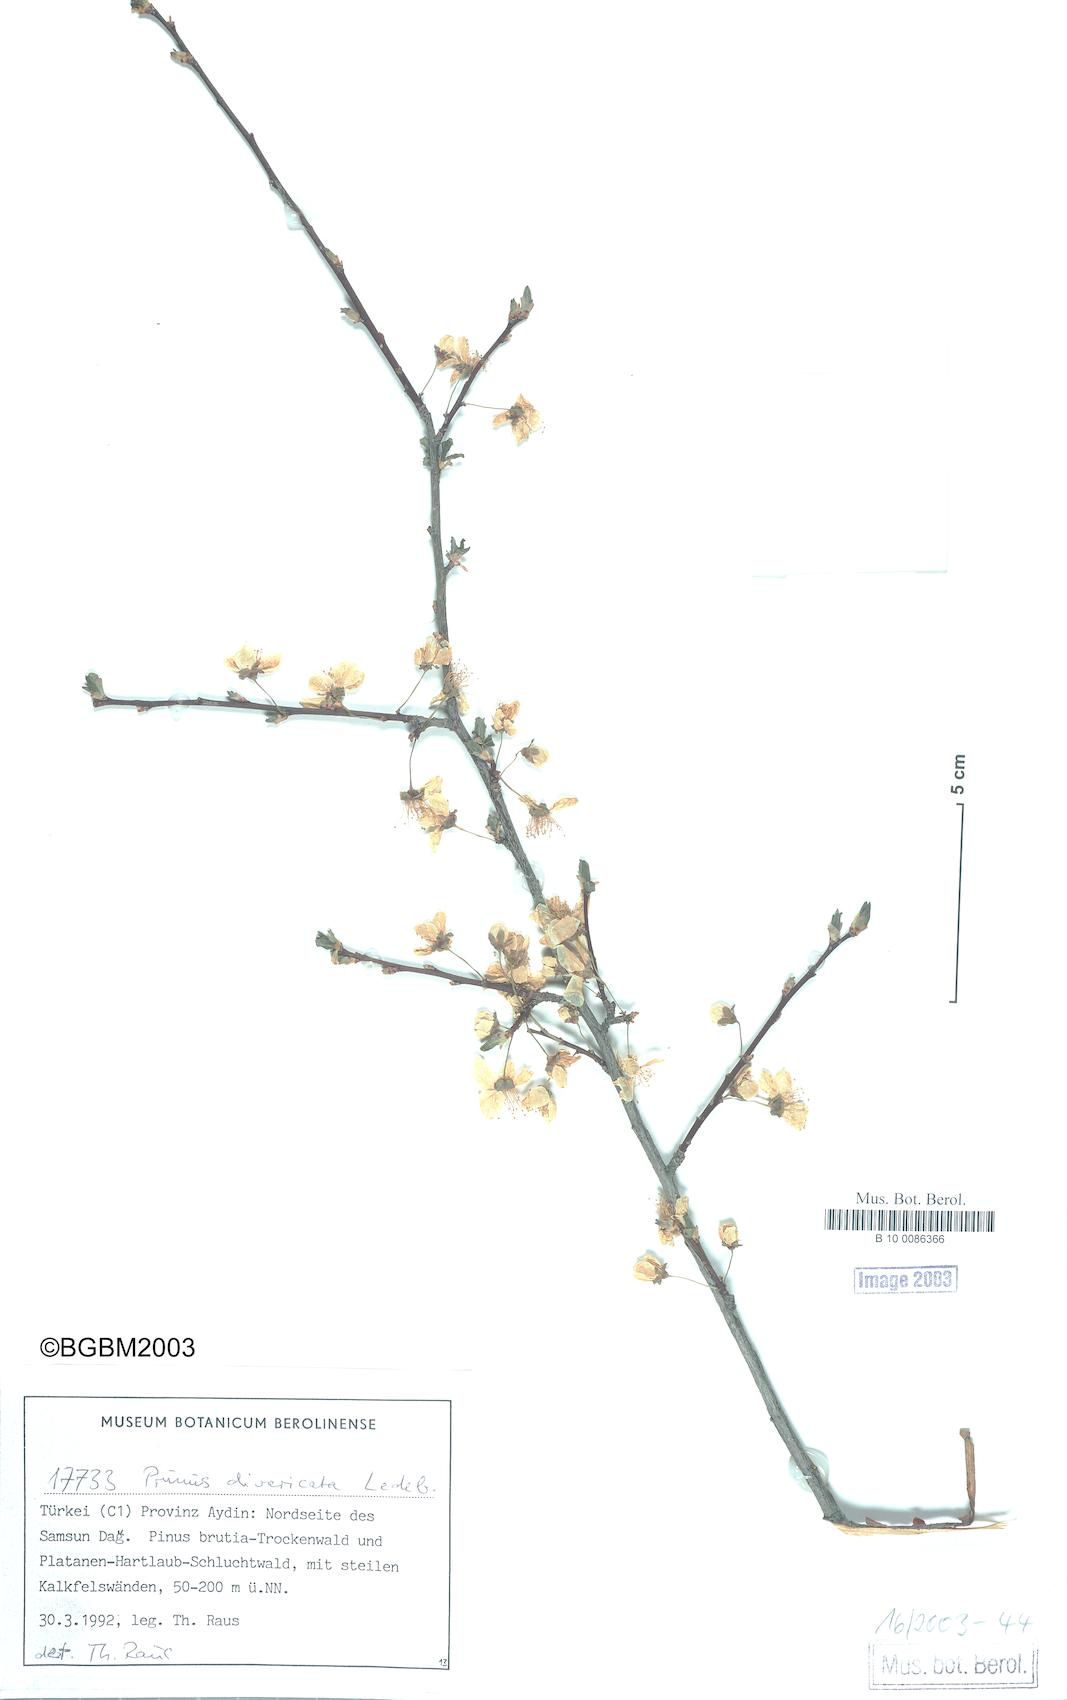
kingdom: Plantae
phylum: Tracheophyta
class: Magnoliopsida
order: Rosales
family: Rosaceae
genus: Prunus
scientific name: Prunus cerasifera
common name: Cherry plum
